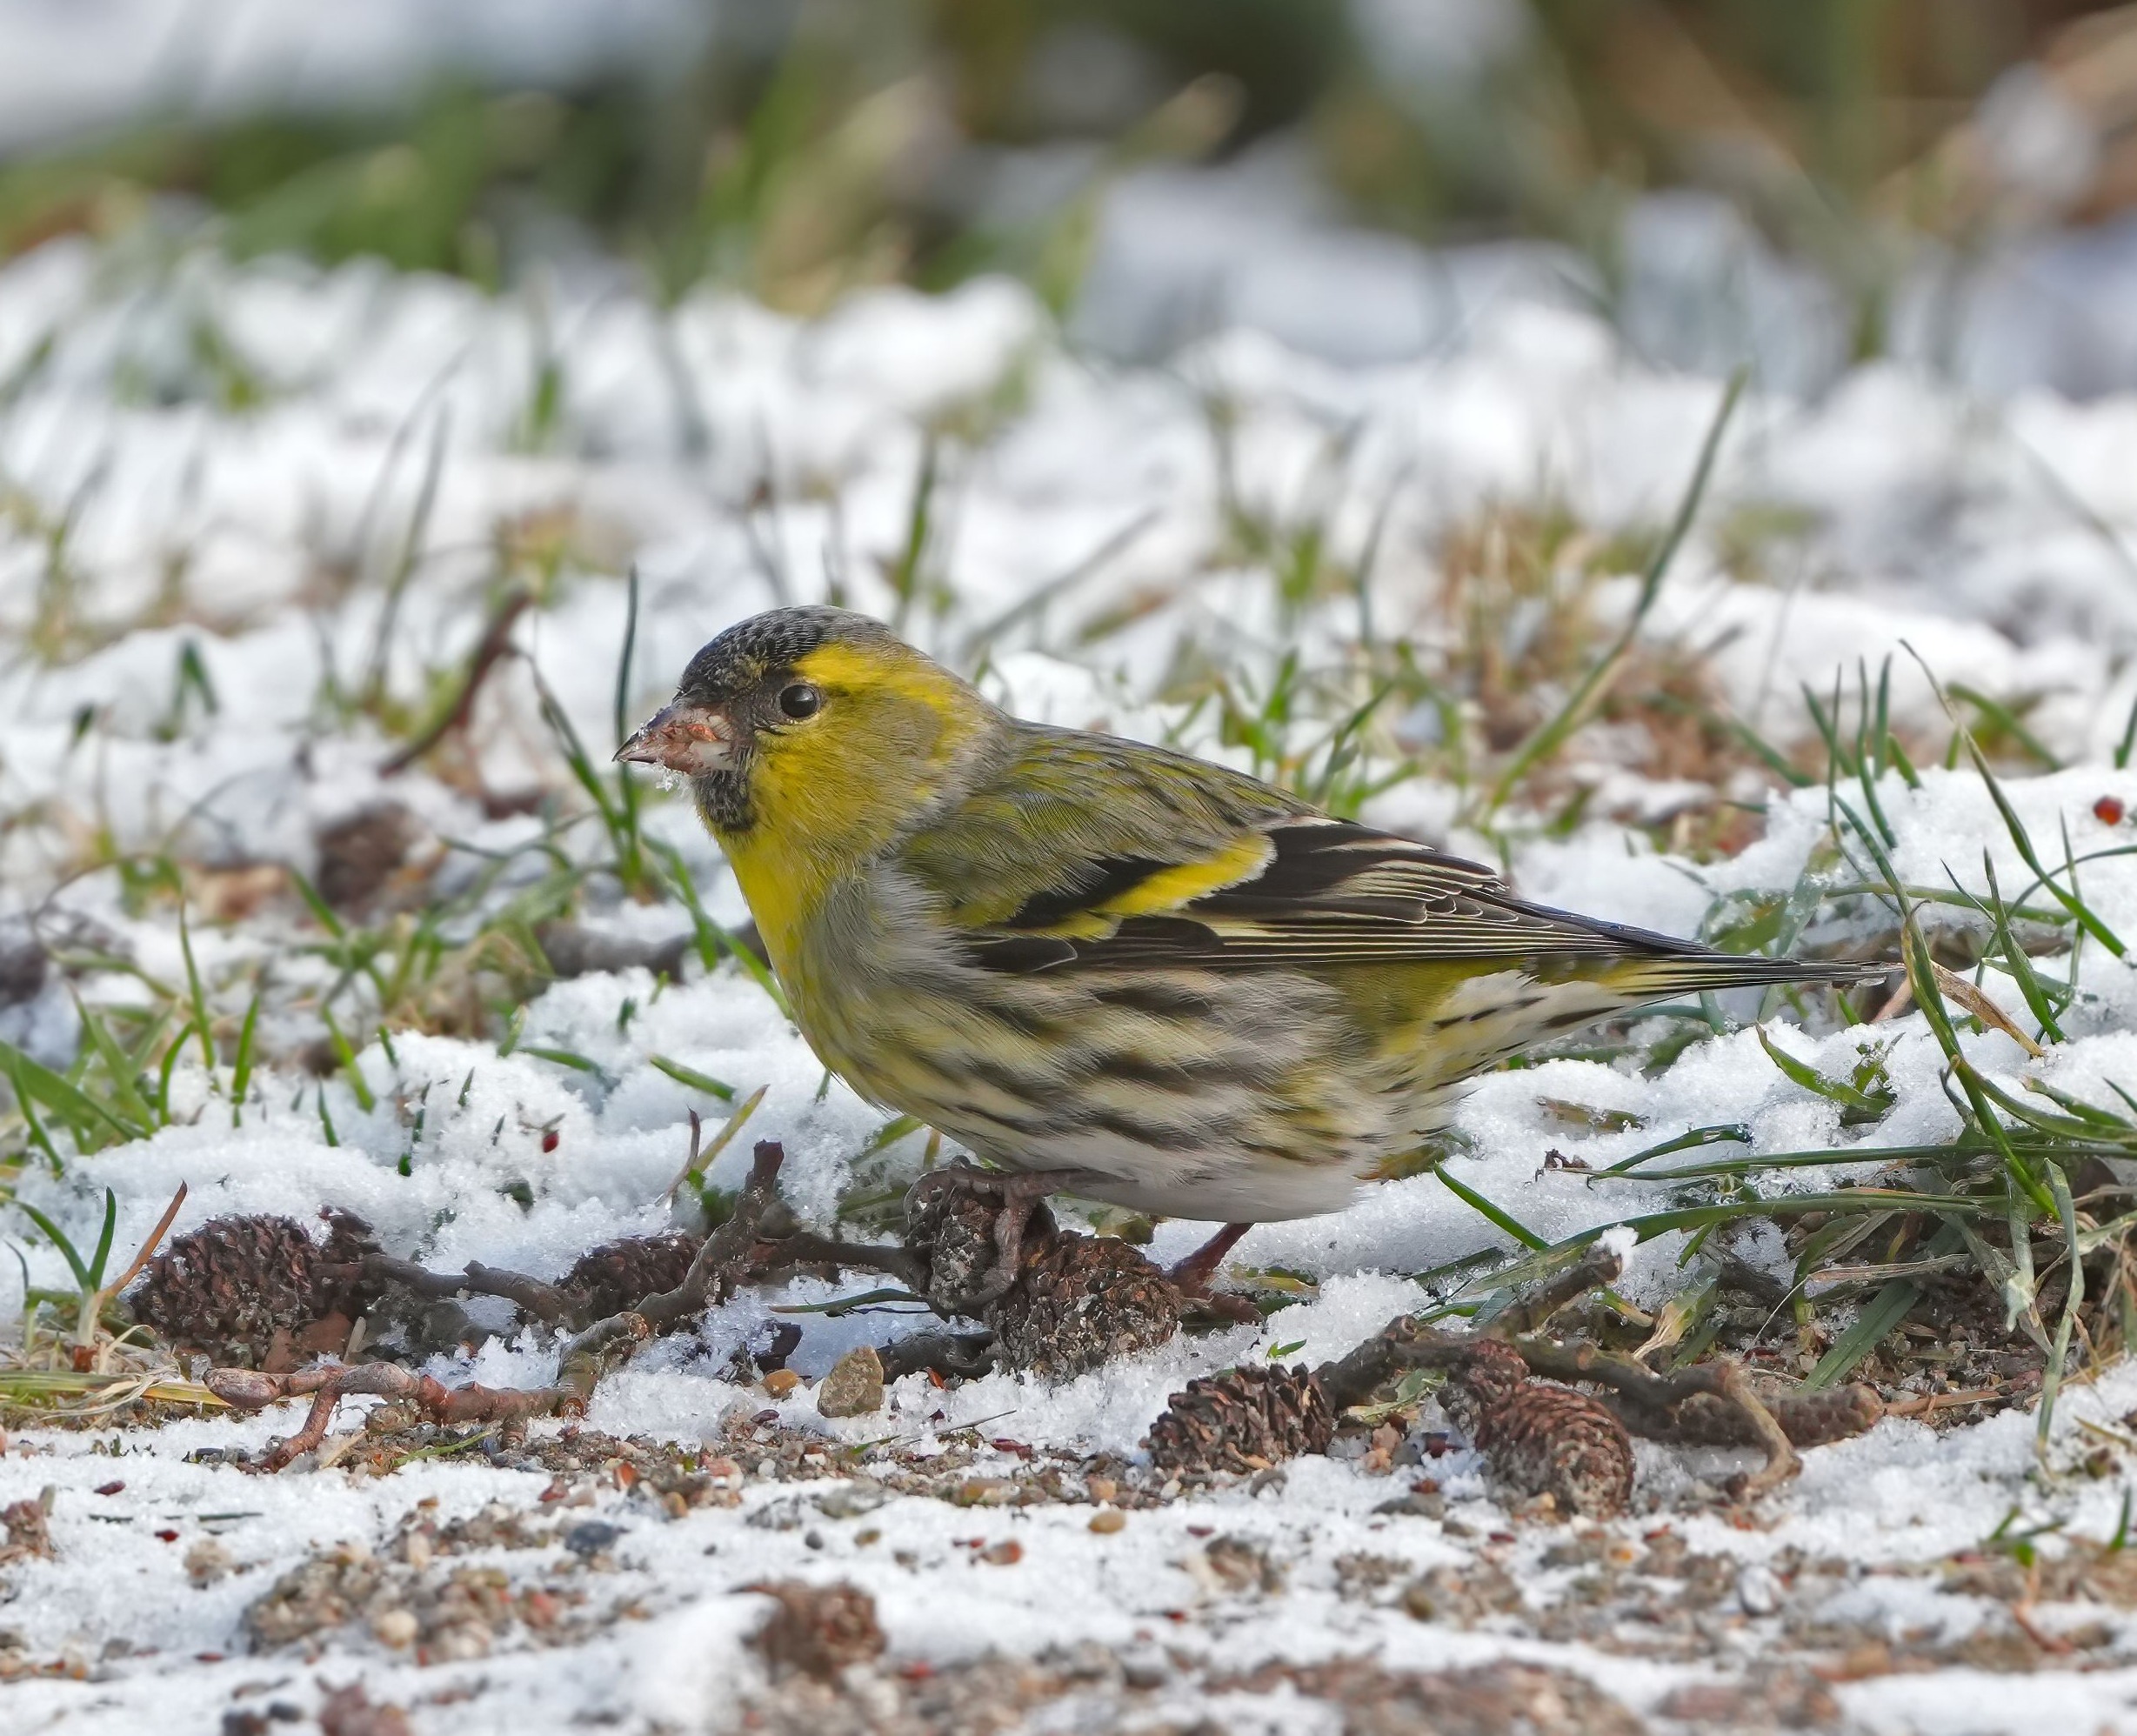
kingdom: Animalia
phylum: Chordata
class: Aves
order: Passeriformes
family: Fringillidae
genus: Spinus
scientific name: Spinus spinus
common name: Grønsisken
